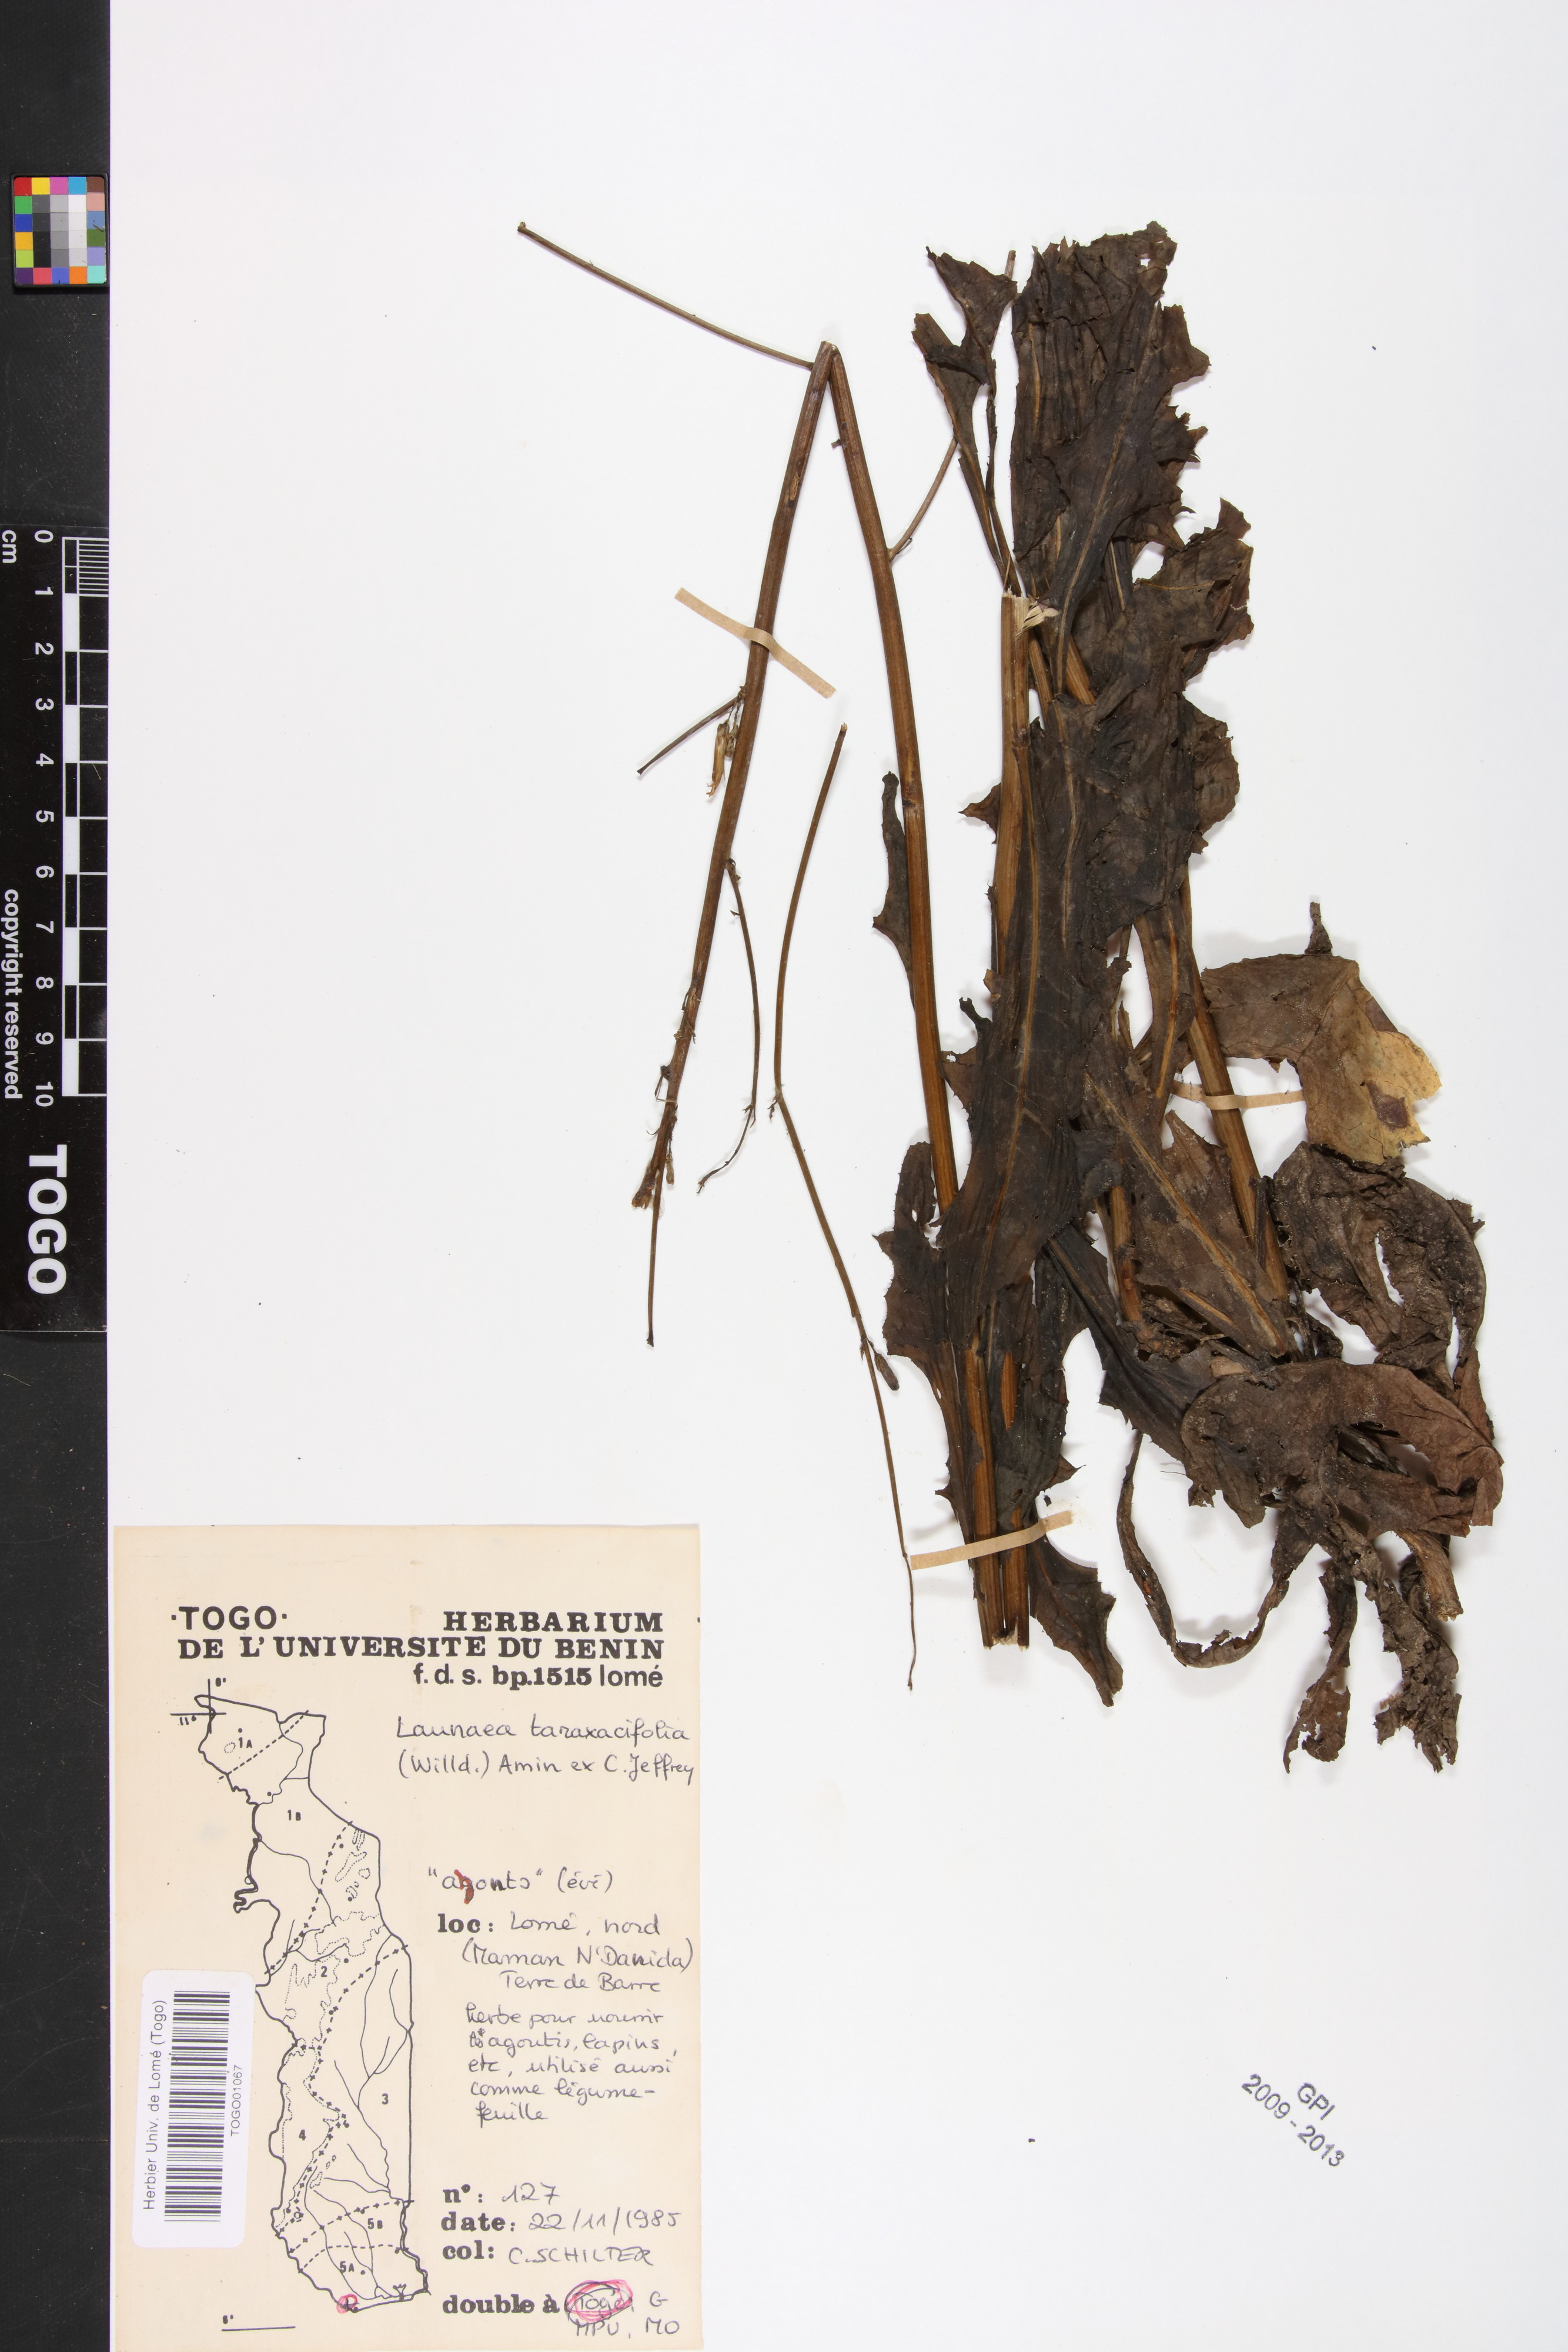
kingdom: Plantae
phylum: Tracheophyta
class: Magnoliopsida
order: Asterales
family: Asteraceae
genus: Launaea
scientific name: Launaea taraxacifolia
